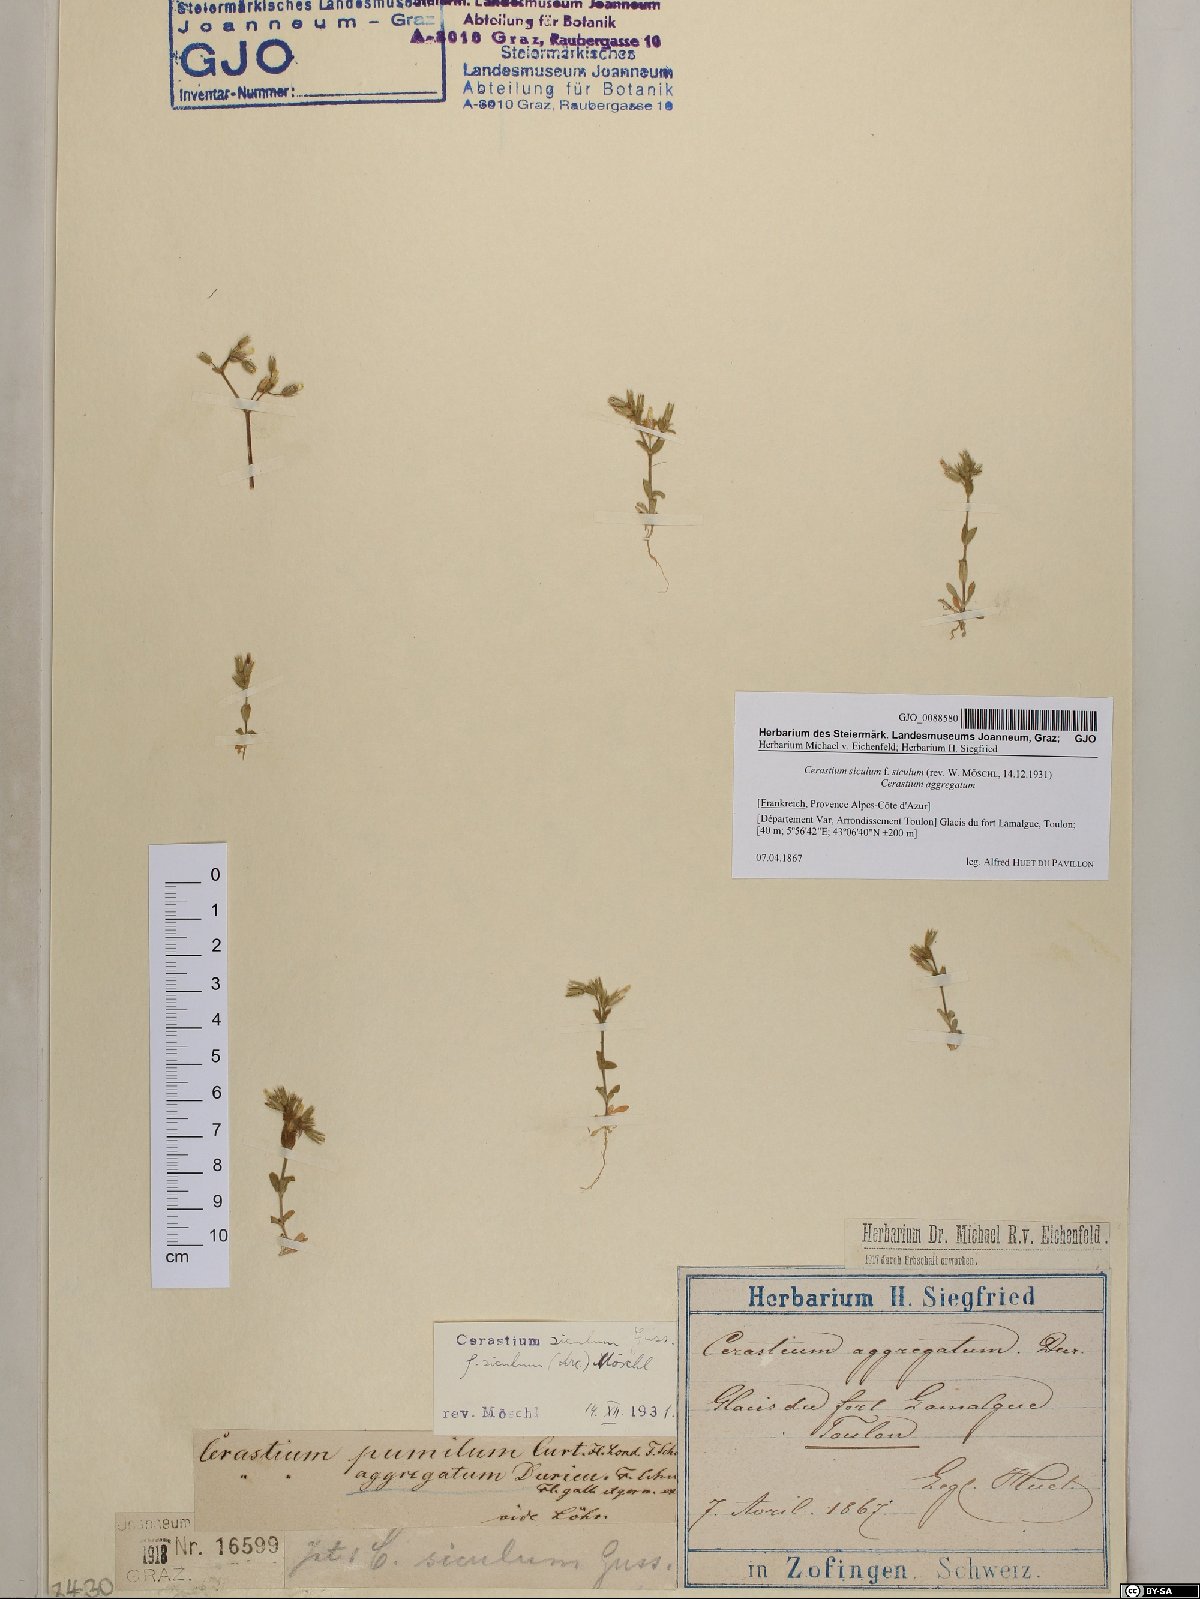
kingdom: Plantae
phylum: Tracheophyta
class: Magnoliopsida
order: Caryophyllales
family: Caryophyllaceae
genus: Cerastium
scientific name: Cerastium siculum
